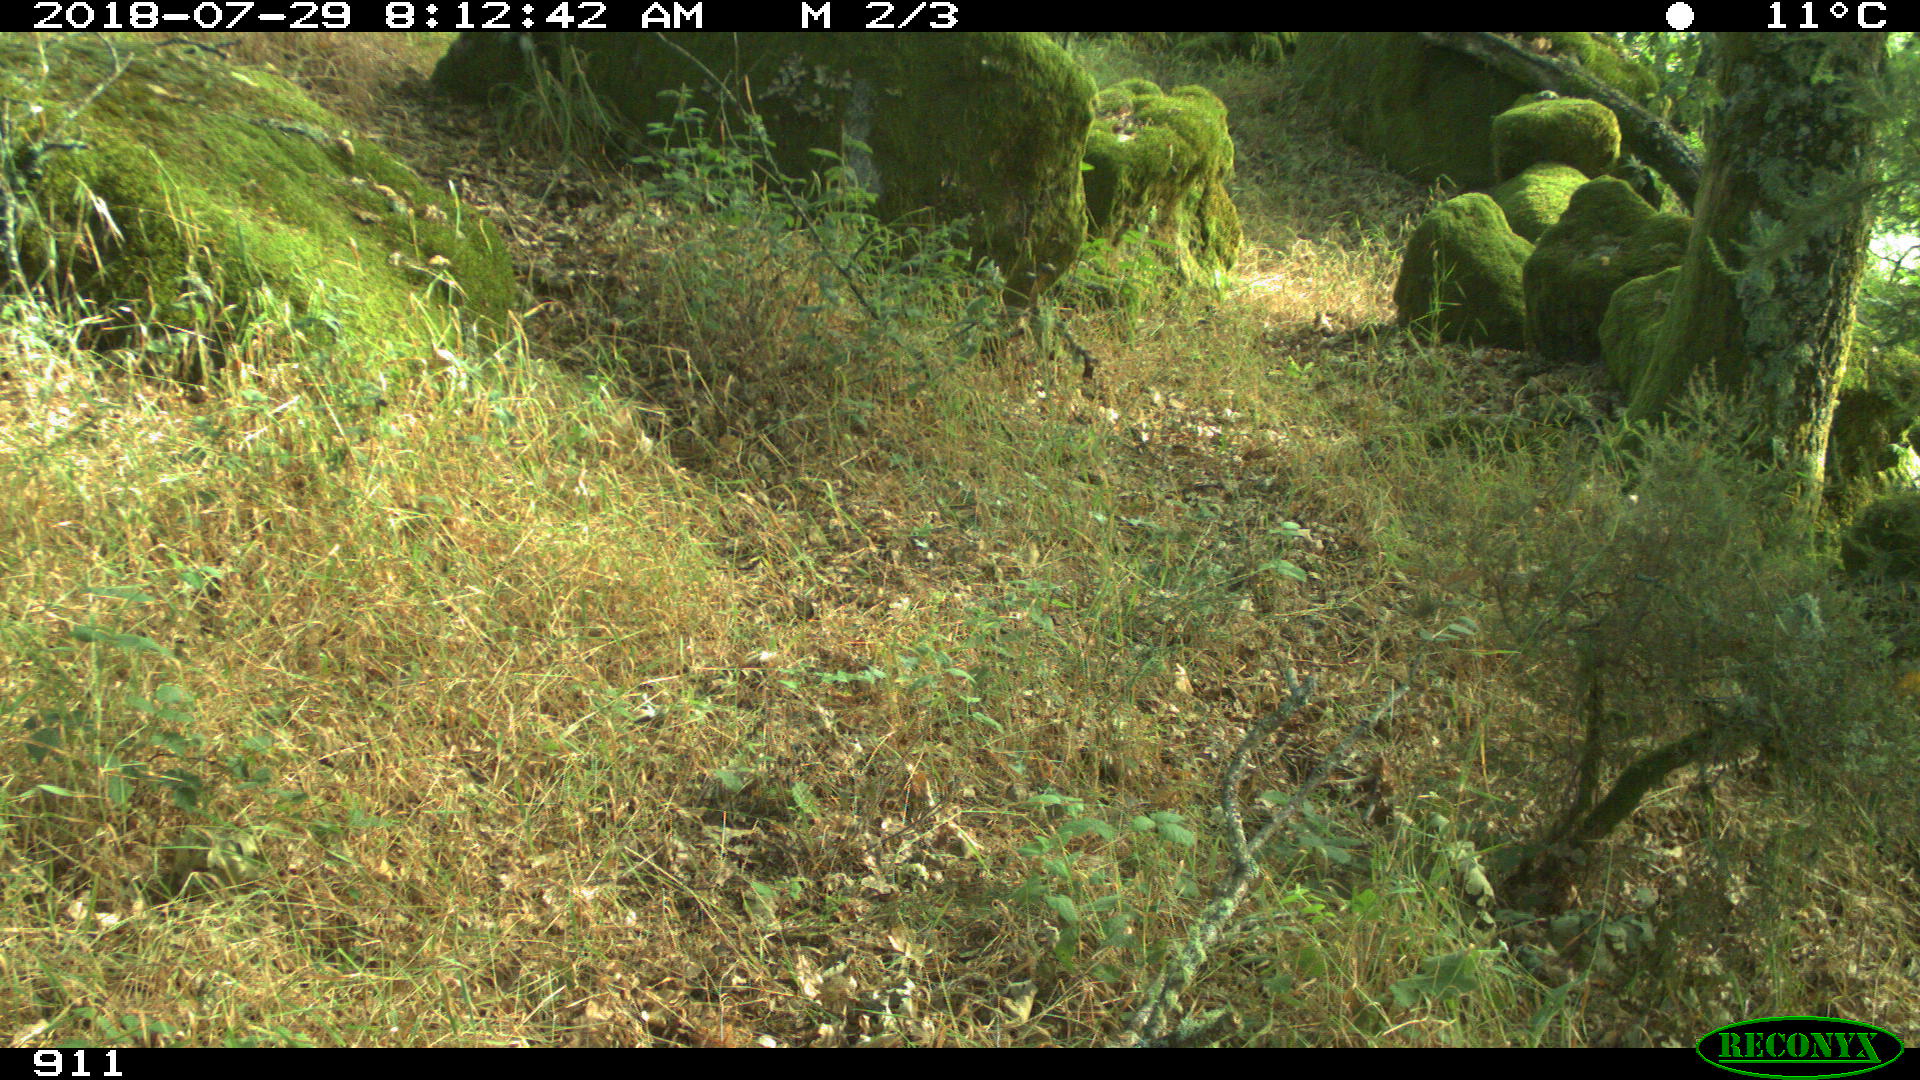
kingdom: Animalia
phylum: Chordata
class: Mammalia
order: Artiodactyla
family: Cervidae
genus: Capreolus
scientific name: Capreolus capreolus
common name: Western roe deer
